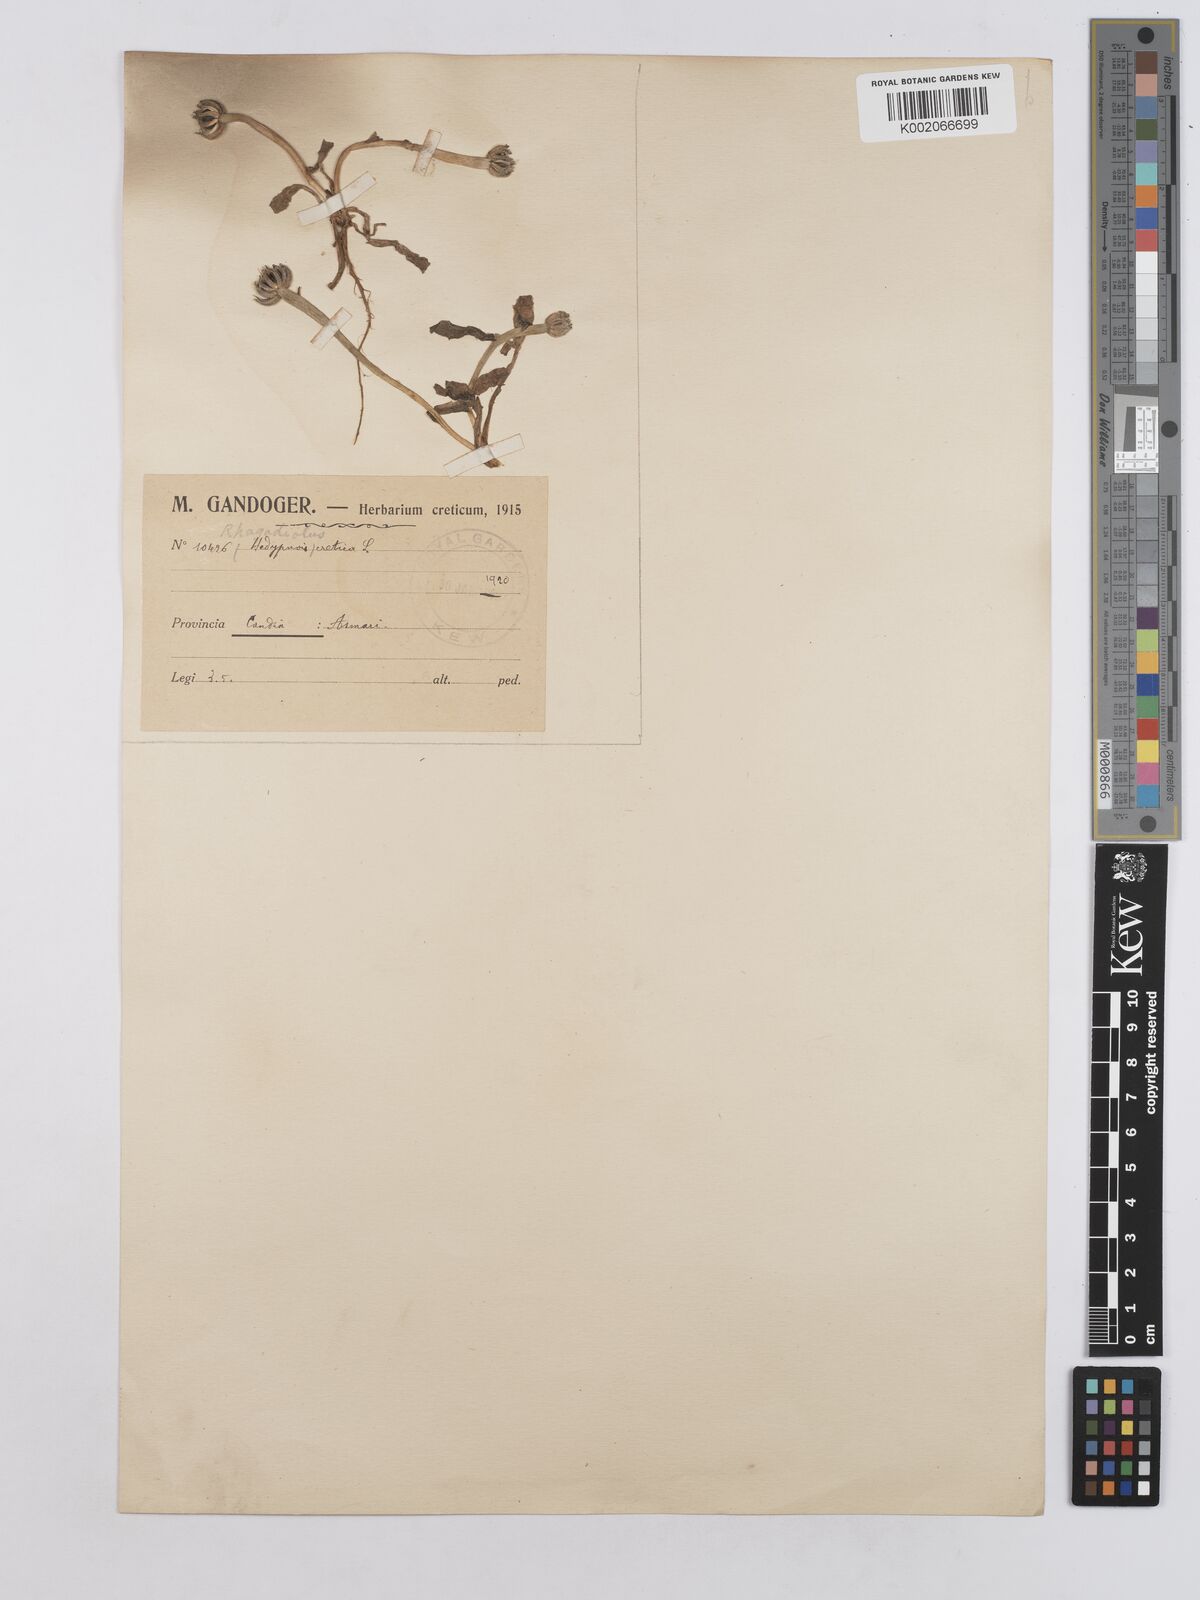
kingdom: Plantae
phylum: Tracheophyta
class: Magnoliopsida
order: Asterales
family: Asteraceae
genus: Hedypnois
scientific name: Hedypnois rhagadioloides
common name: Cretan weed
